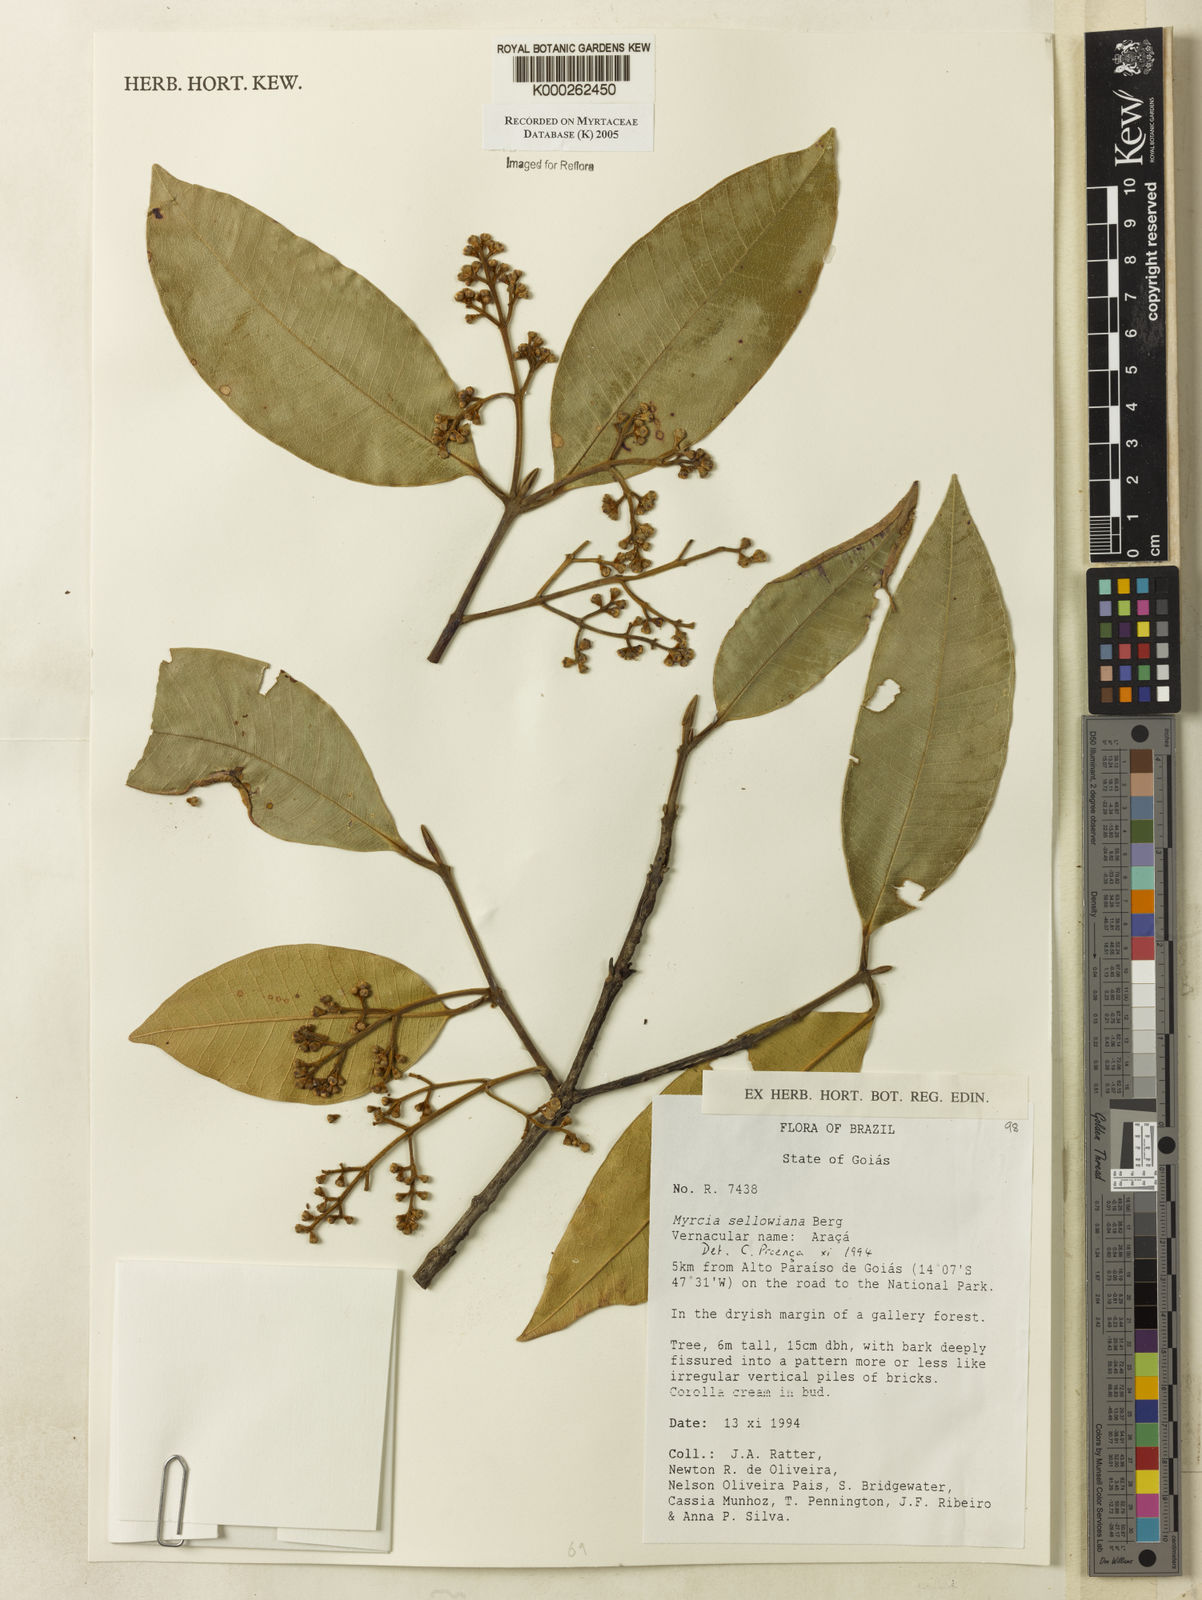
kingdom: Plantae
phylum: Tracheophyta
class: Magnoliopsida
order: Myrtales
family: Myrtaceae
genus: Myrcia
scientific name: Myrcia splendens
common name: Surinam cherry
